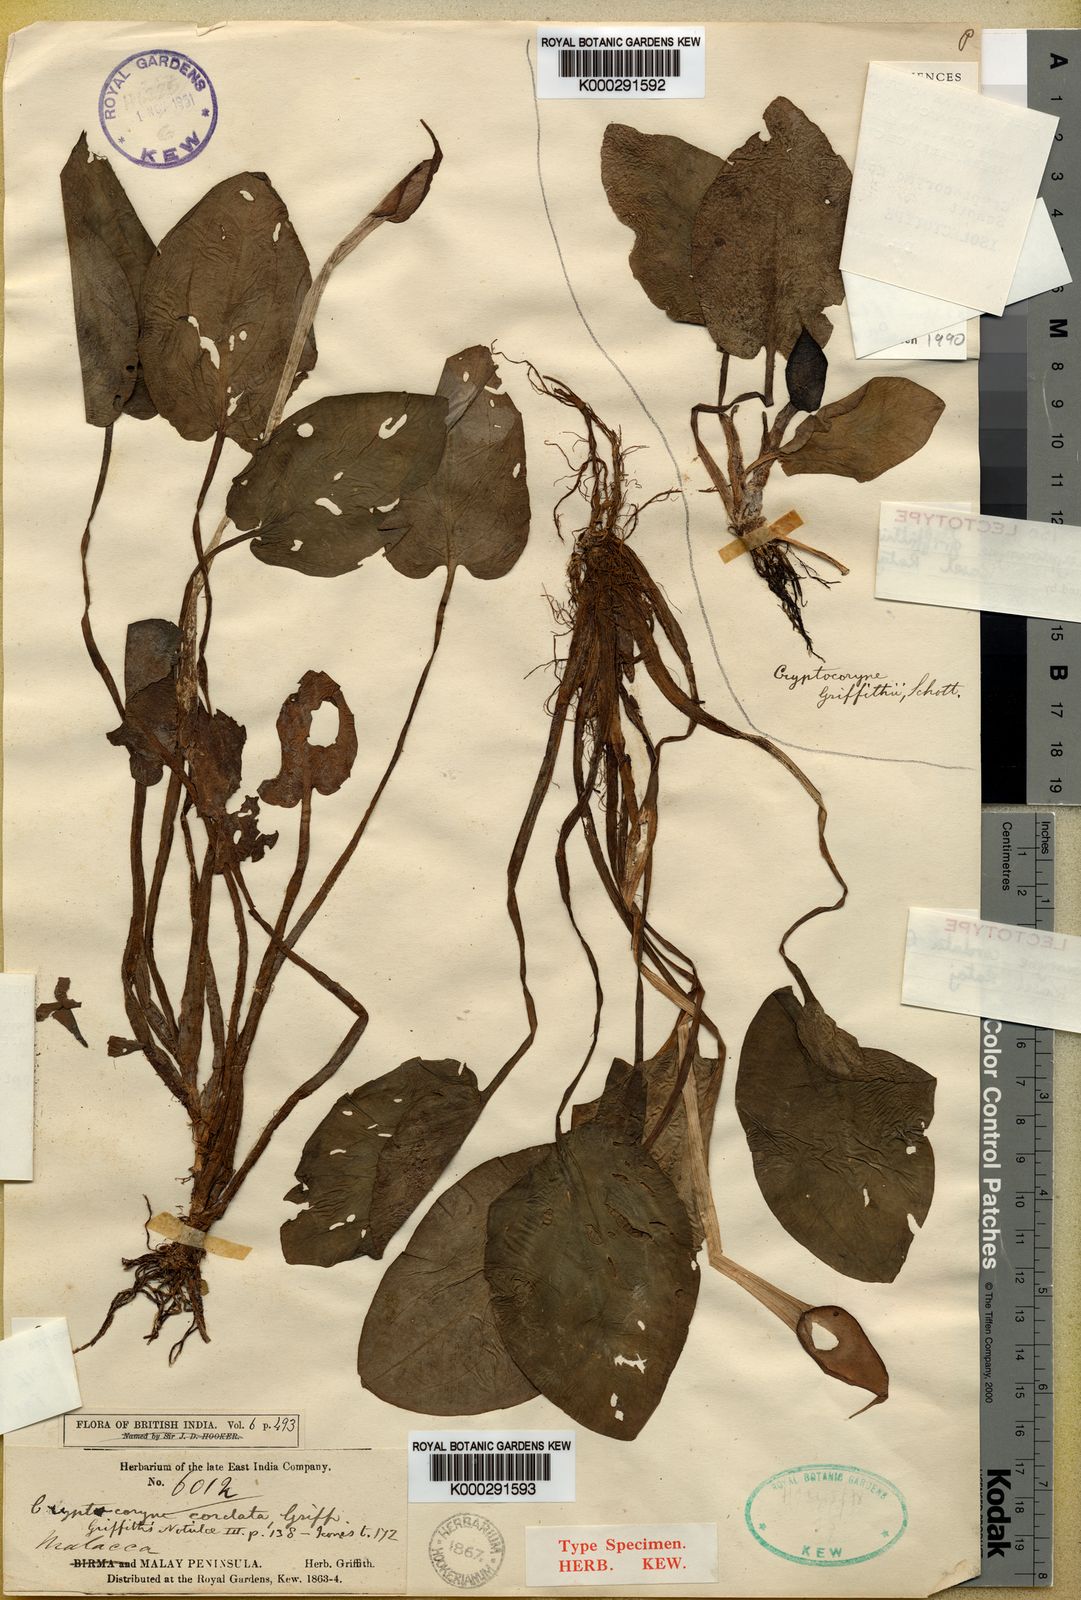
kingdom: Plantae
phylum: Tracheophyta
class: Liliopsida
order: Alismatales
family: Araceae
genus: Cryptocoryne
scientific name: Cryptocoryne cordata
